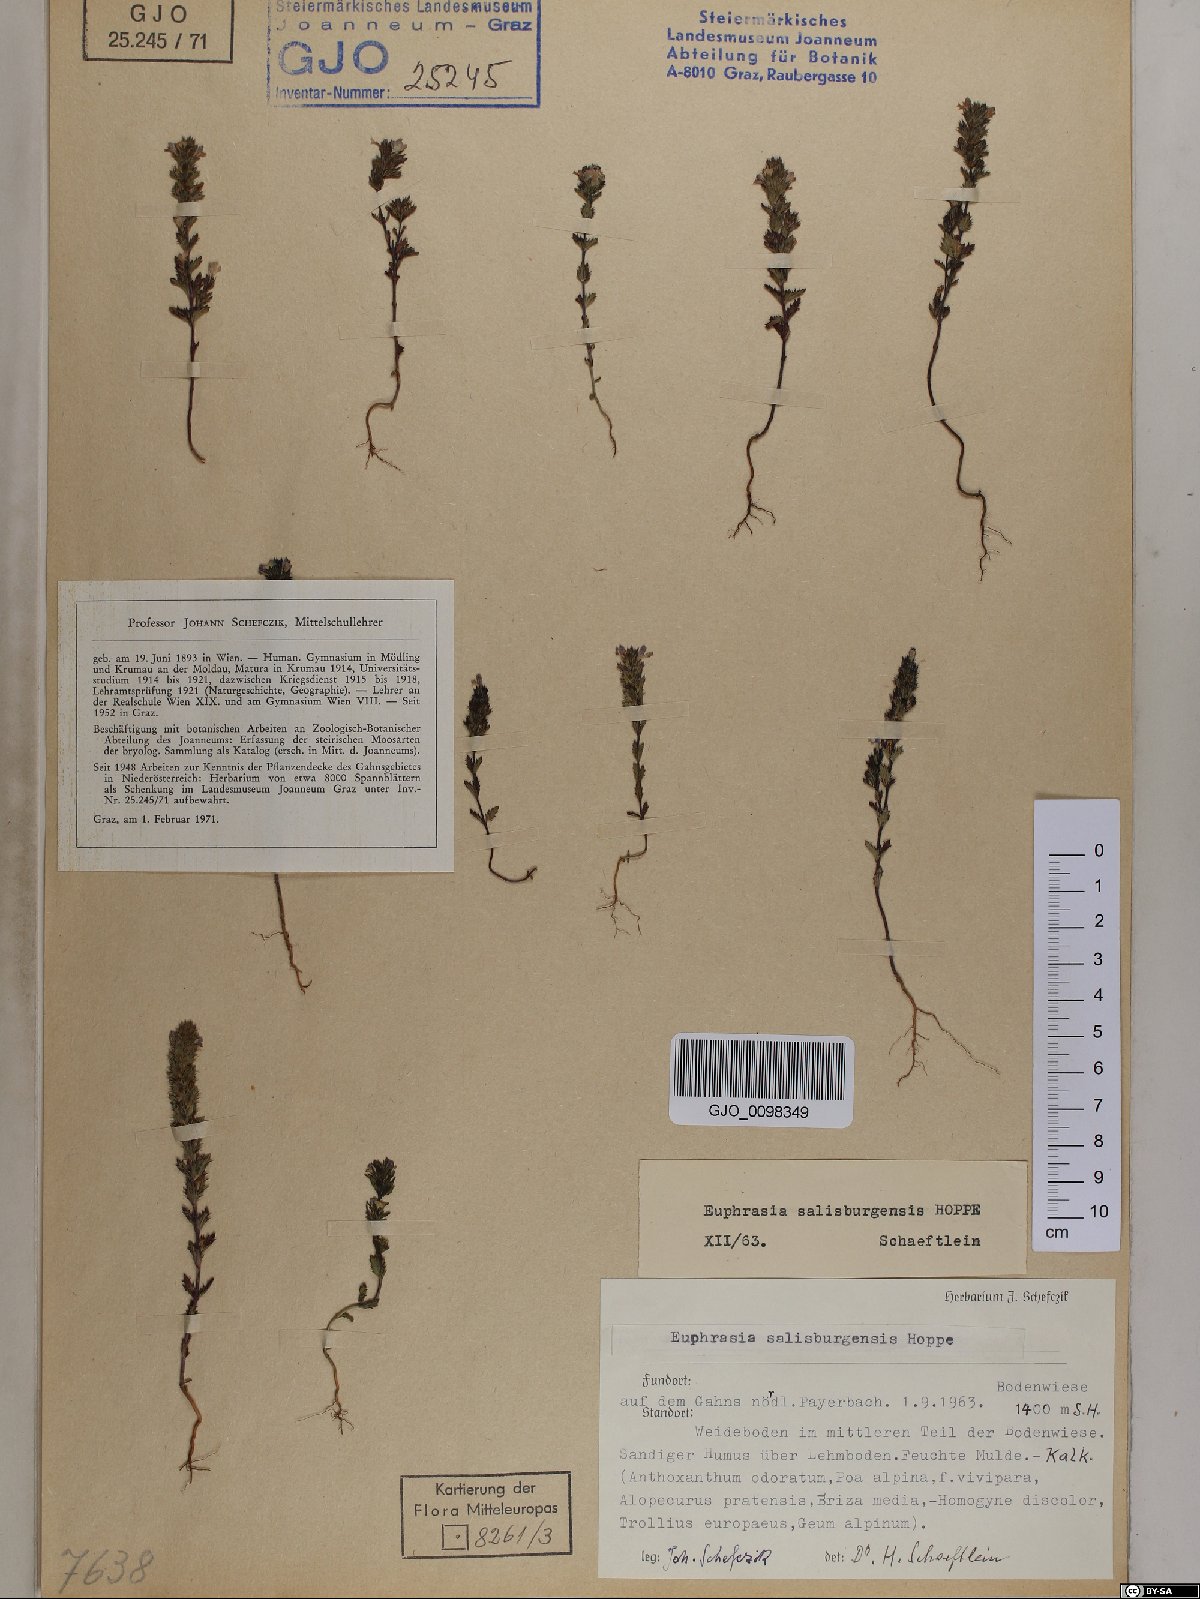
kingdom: Plantae
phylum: Tracheophyta
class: Magnoliopsida
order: Lamiales
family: Orobanchaceae
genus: Euphrasia
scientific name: Euphrasia salisburgensis
